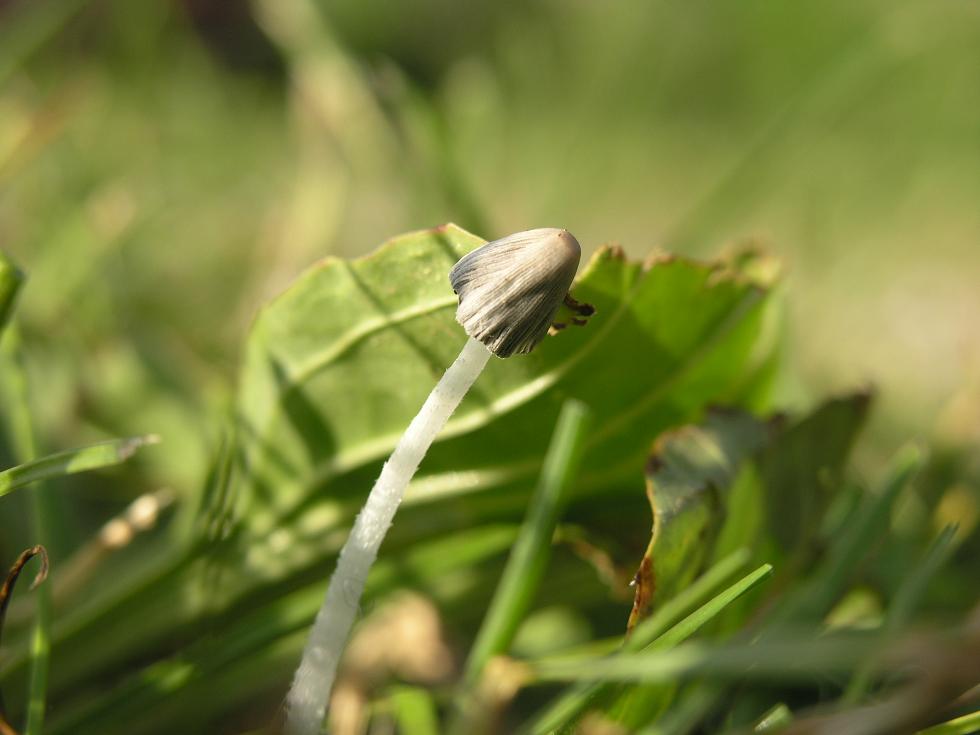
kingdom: Fungi
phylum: Basidiomycota
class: Agaricomycetes
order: Agaricales
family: Psathyrellaceae
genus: Coprinopsis
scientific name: Coprinopsis lagopus
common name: dunstokket blækhat
